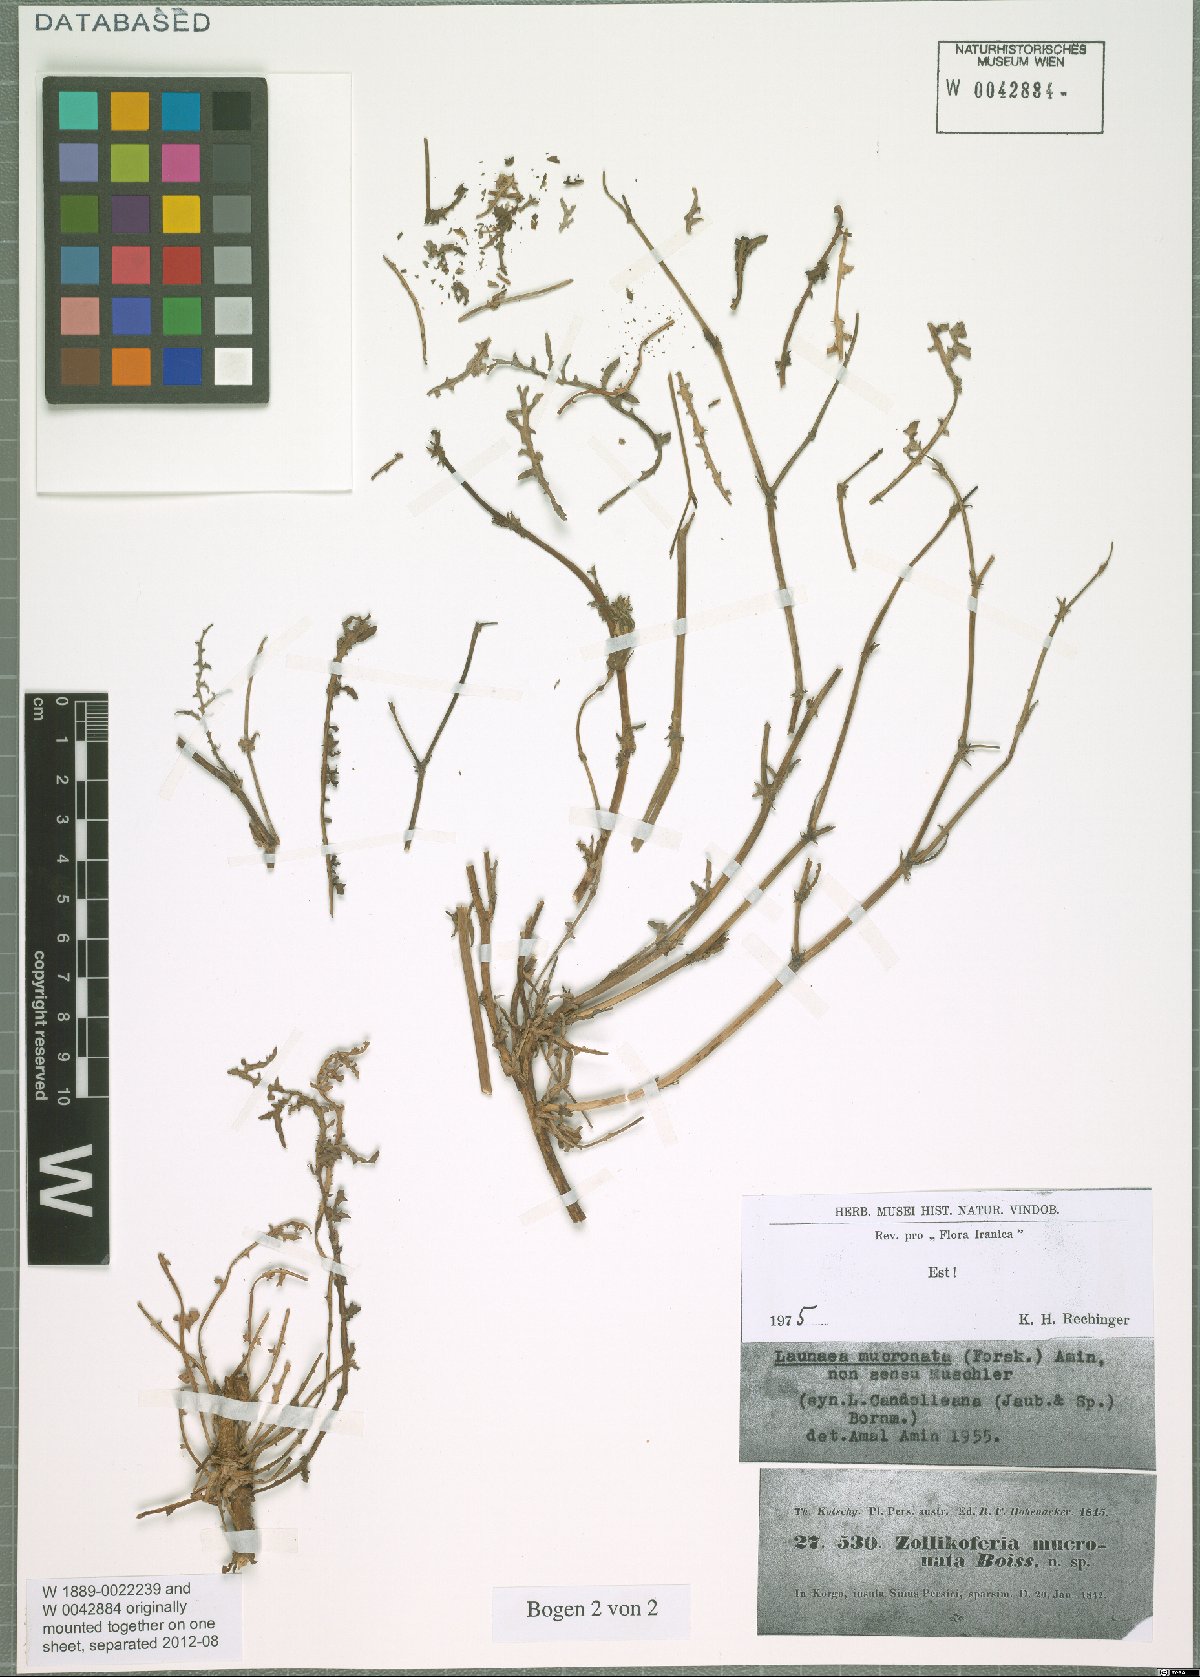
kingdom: Plantae
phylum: Tracheophyta
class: Magnoliopsida
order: Asterales
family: Asteraceae
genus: Launaea
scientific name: Launaea mucronata
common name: Mucronate launea
